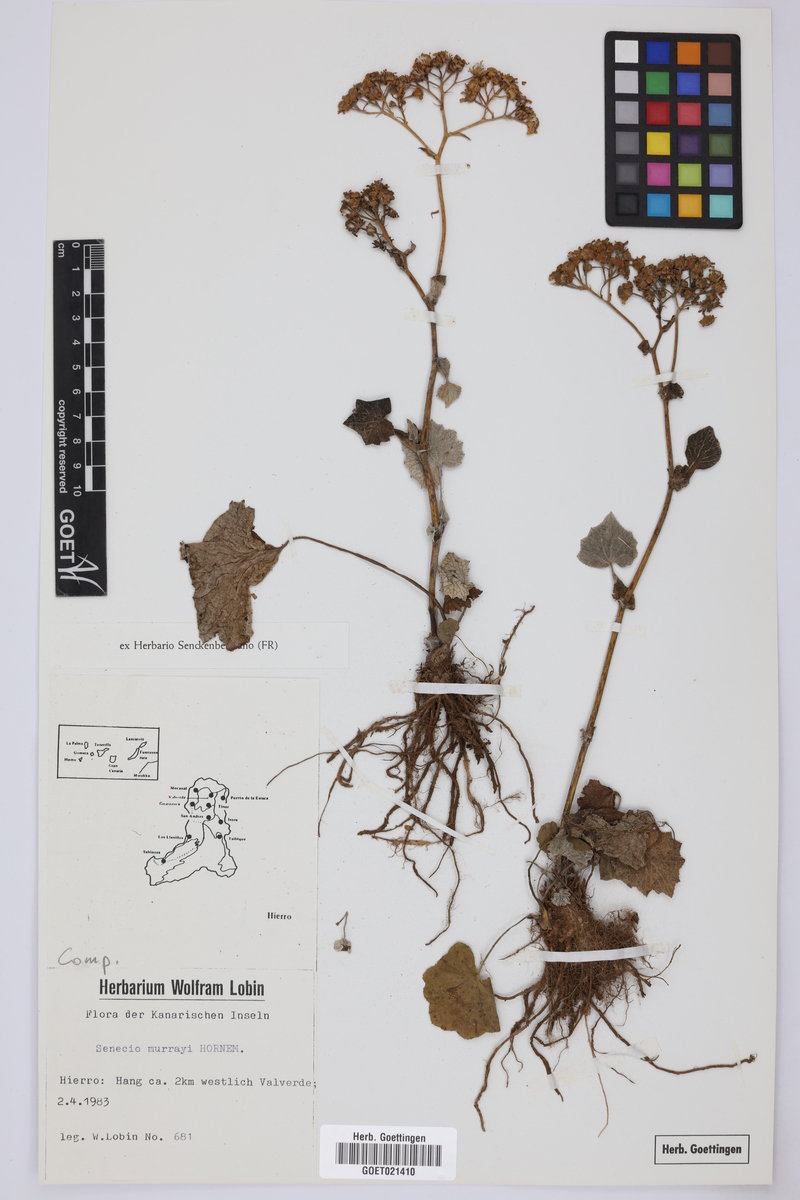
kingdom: Plantae
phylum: Tracheophyta
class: Magnoliopsida
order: Asterales
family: Asteraceae
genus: Pericallis
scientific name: Pericallis murrayi
